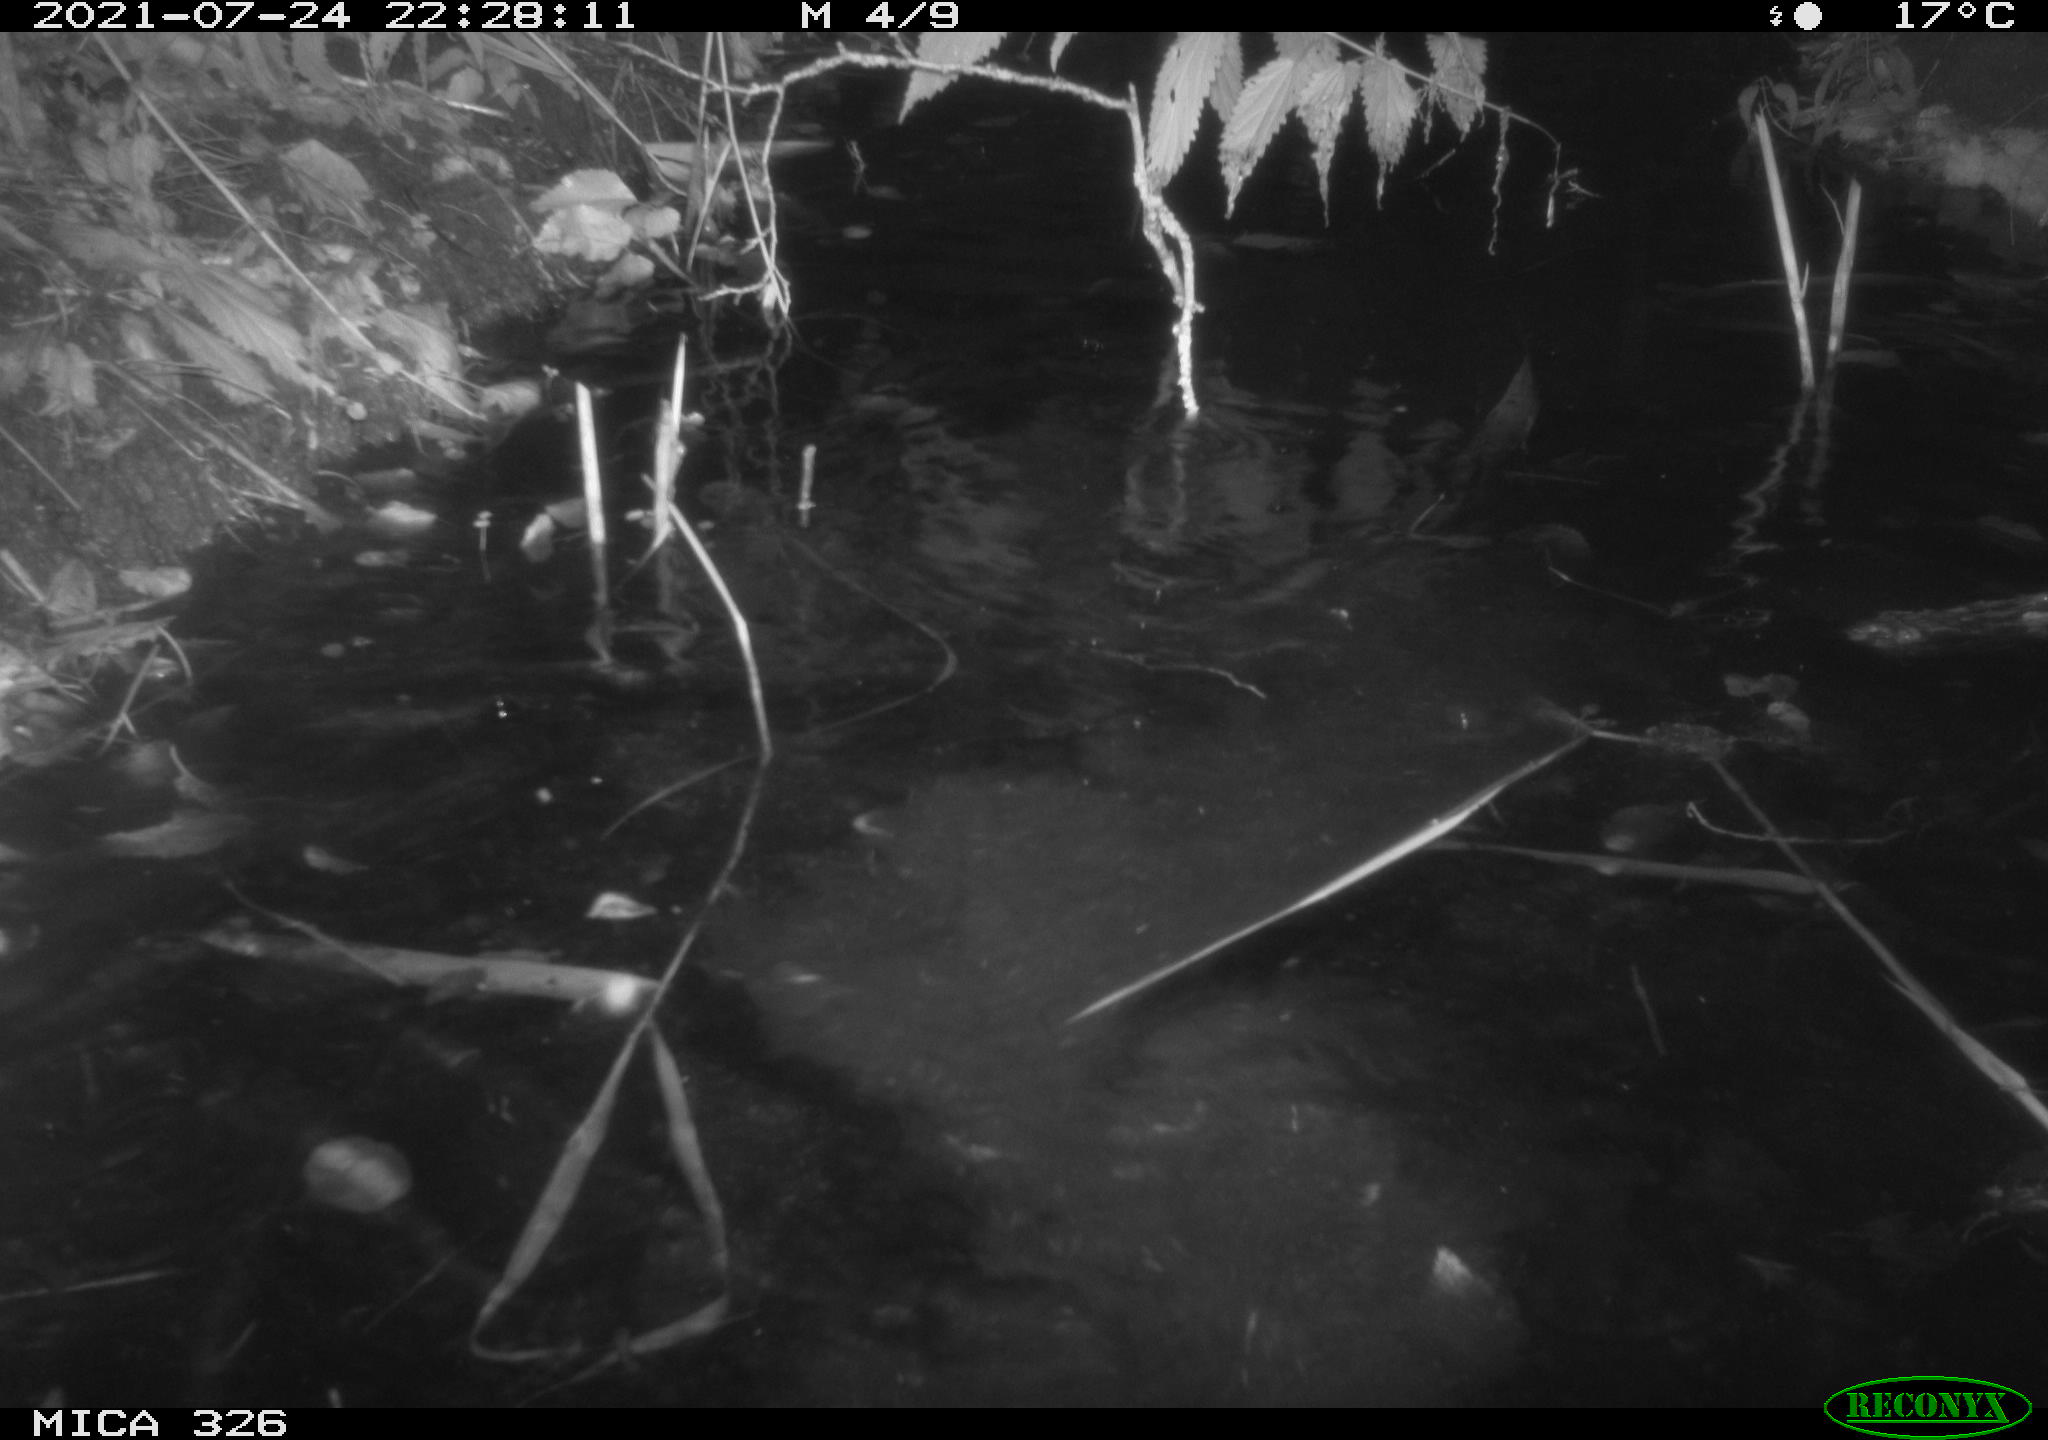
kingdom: Animalia
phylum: Chordata
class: Mammalia
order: Rodentia
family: Myocastoridae
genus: Myocastor
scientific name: Myocastor coypus
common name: Coypu
